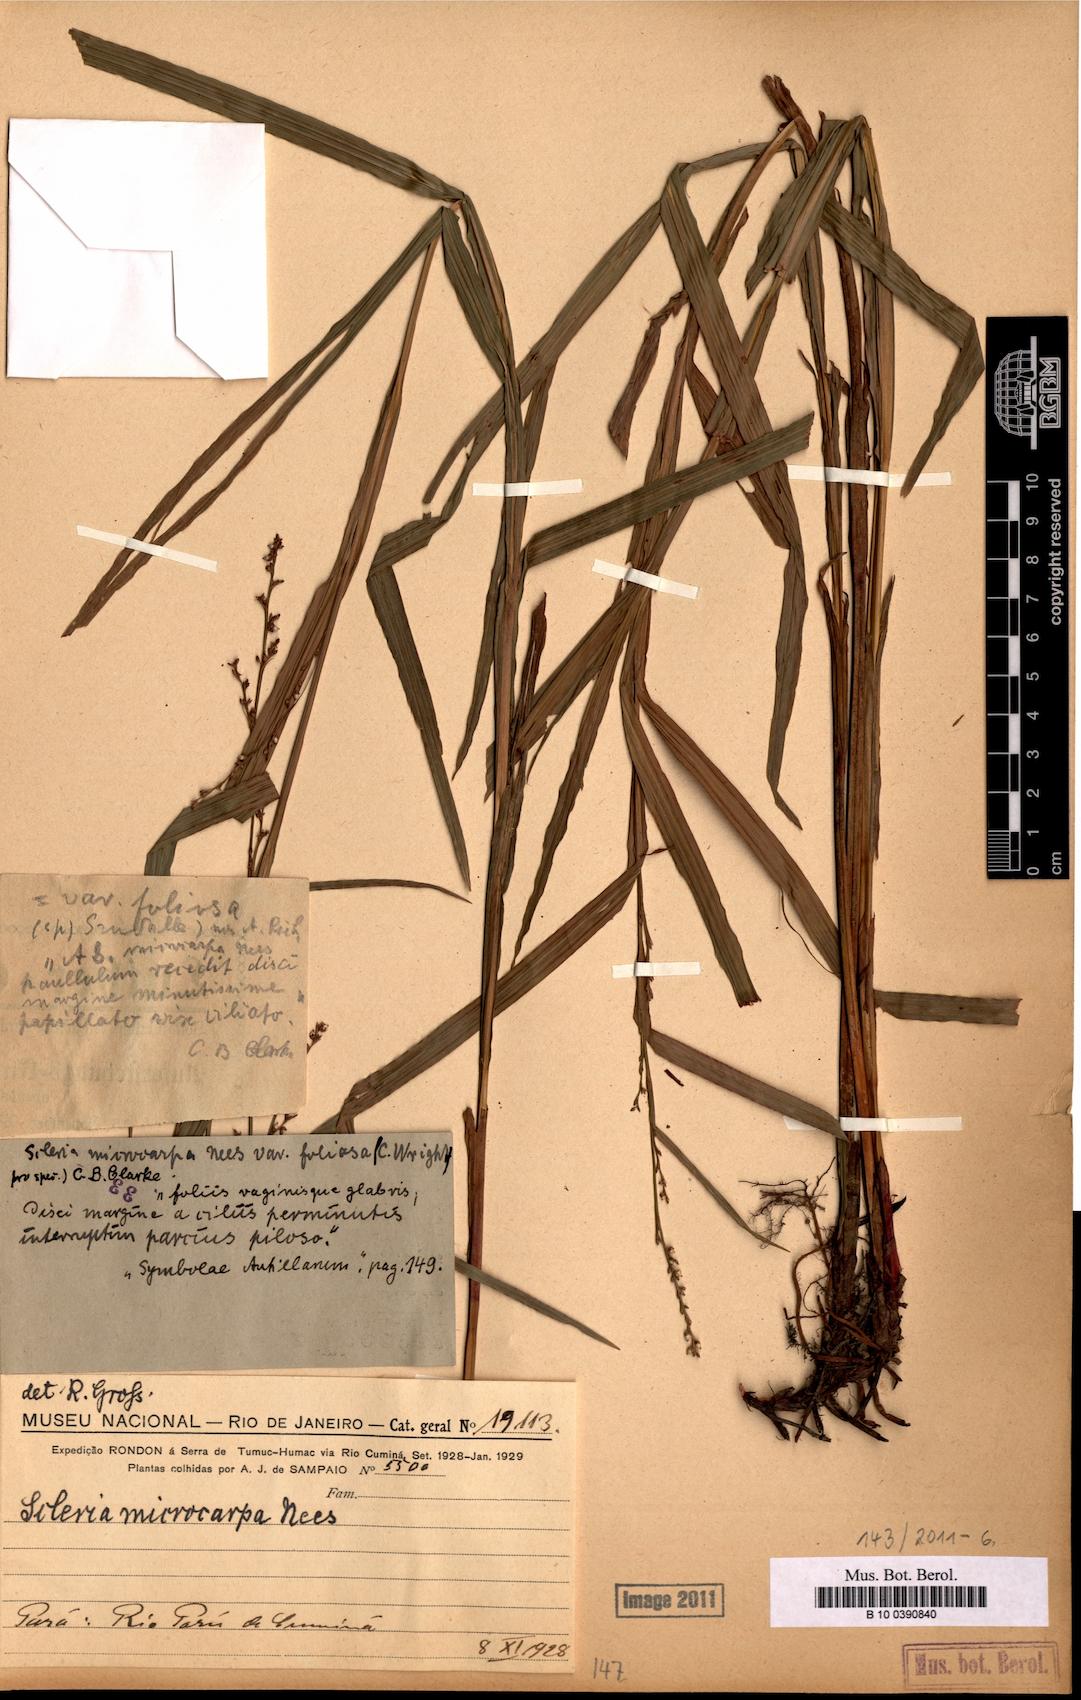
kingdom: Plantae
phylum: Tracheophyta
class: Liliopsida
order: Poales
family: Cyperaceae
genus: Scleria
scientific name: Scleria microcarpa
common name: Tropical nutrush
